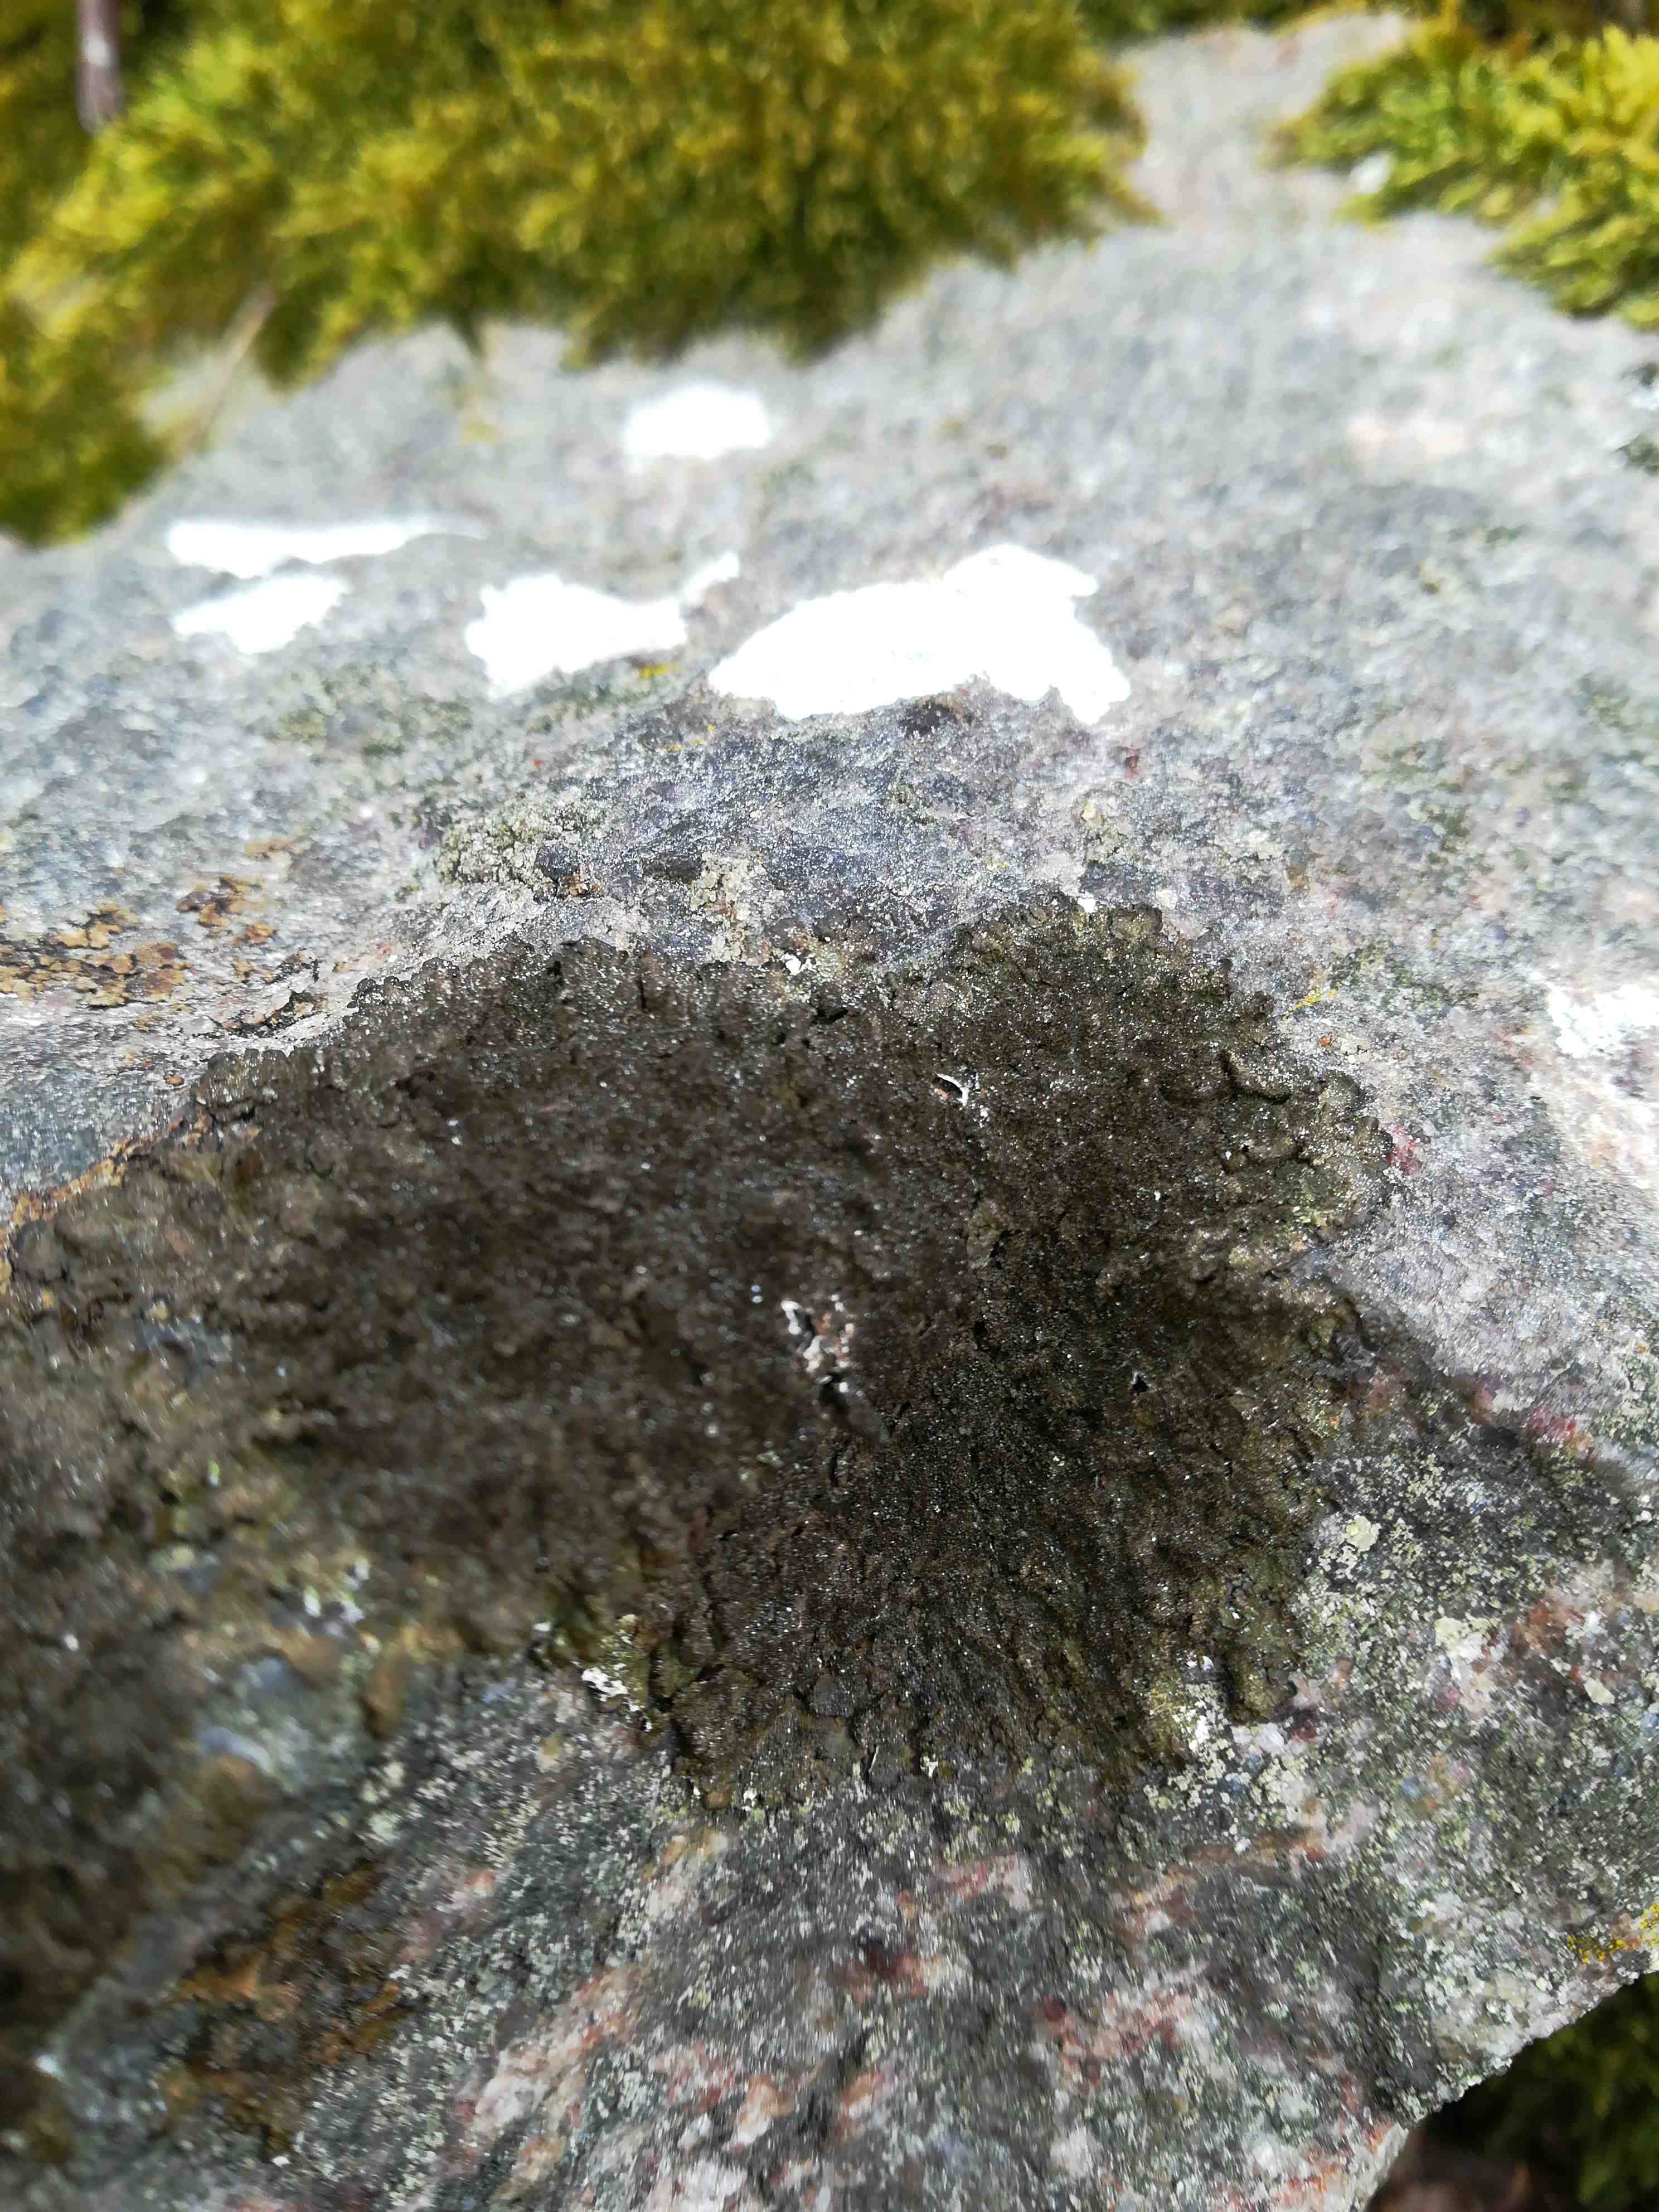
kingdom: Fungi
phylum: Ascomycota
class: Lecanoromycetes
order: Lecanorales
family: Parmeliaceae
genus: Melanelixia
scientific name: Melanelixia fuliginosa
